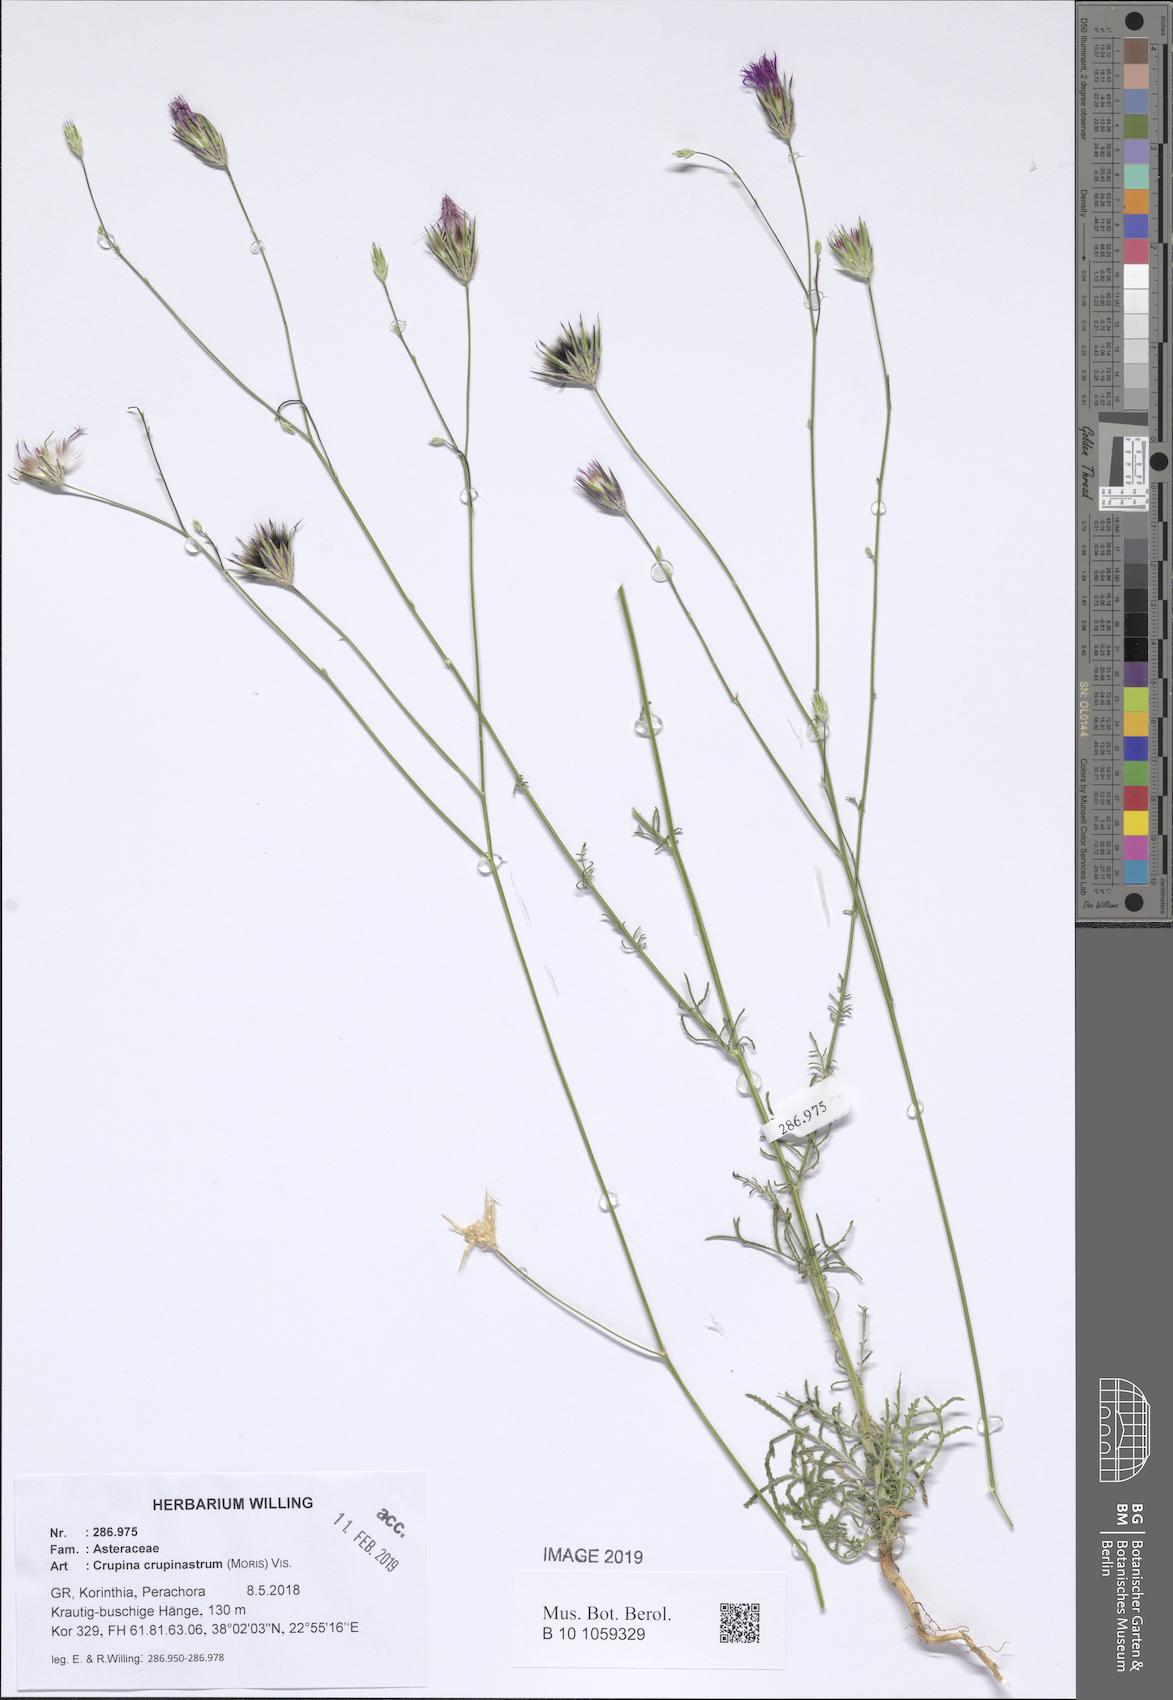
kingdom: Plantae
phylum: Tracheophyta
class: Magnoliopsida
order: Asterales
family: Asteraceae
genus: Crupina
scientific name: Crupina crupinastrum
